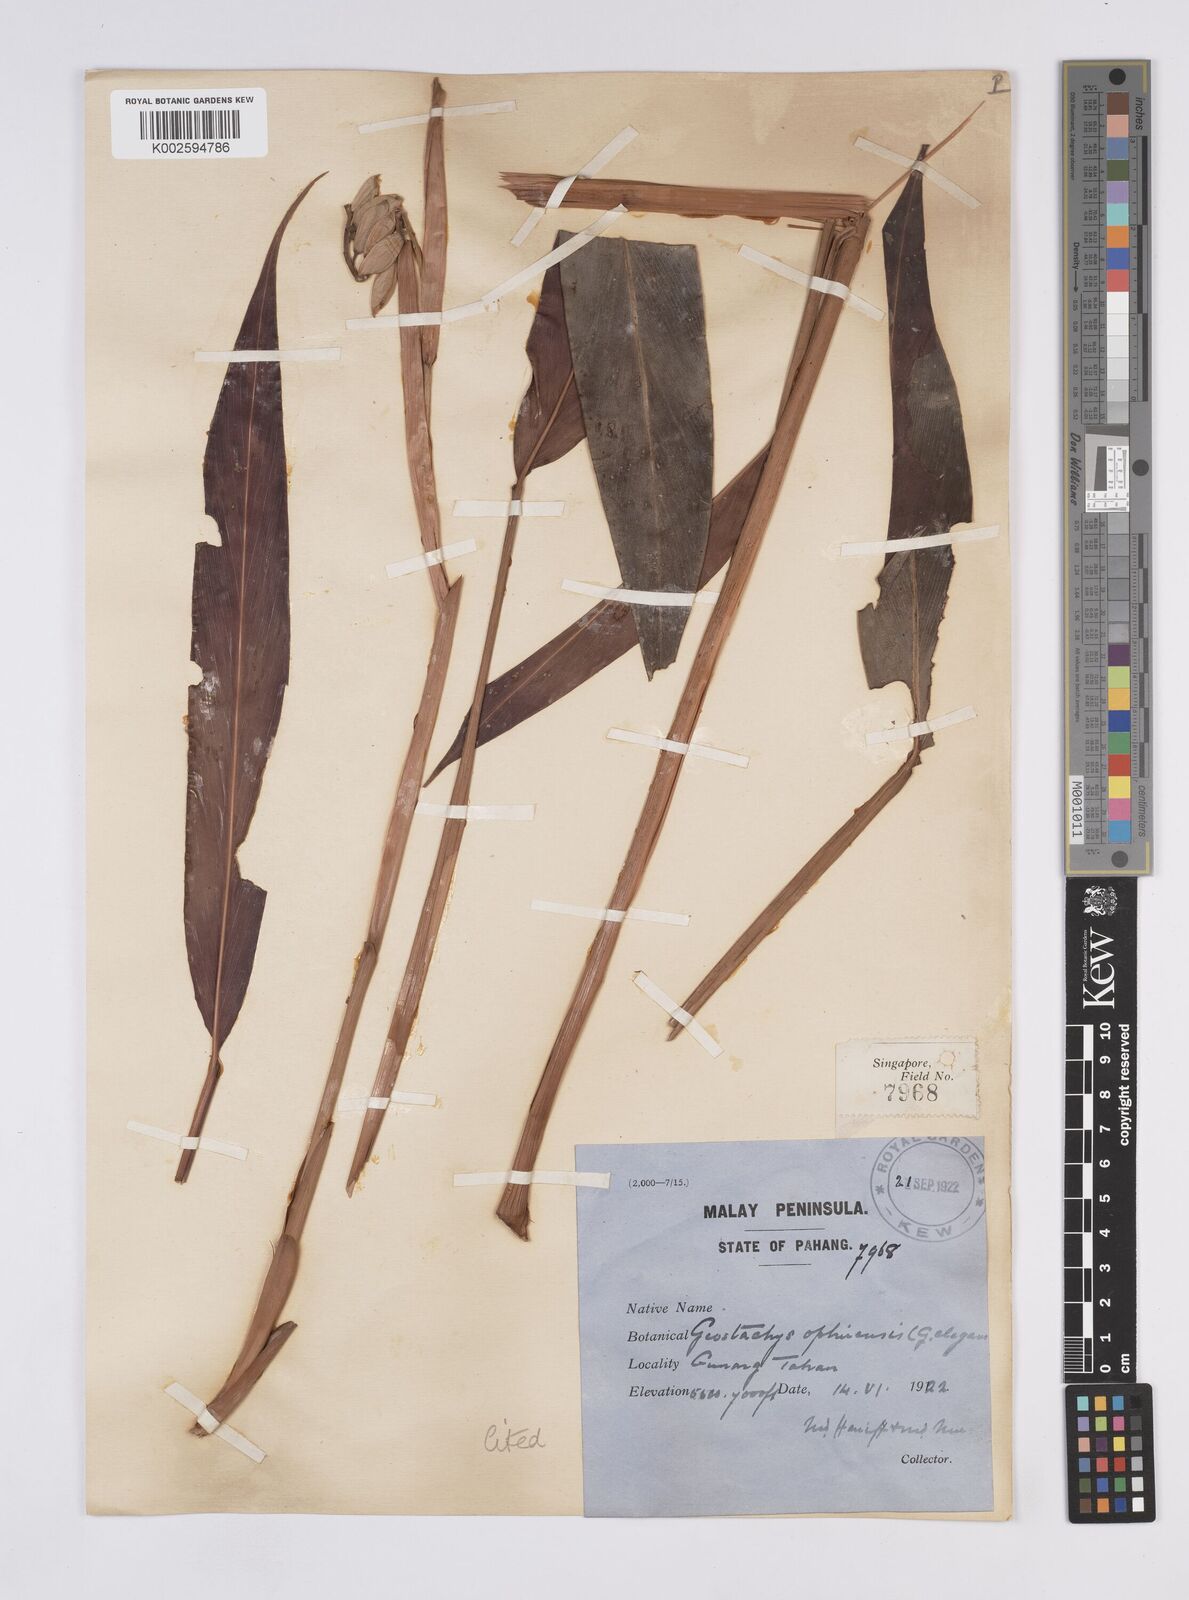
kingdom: Plantae
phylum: Tracheophyta
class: Liliopsida
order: Zingiberales
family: Zingiberaceae
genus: Geostachys
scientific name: Geostachys elegans
